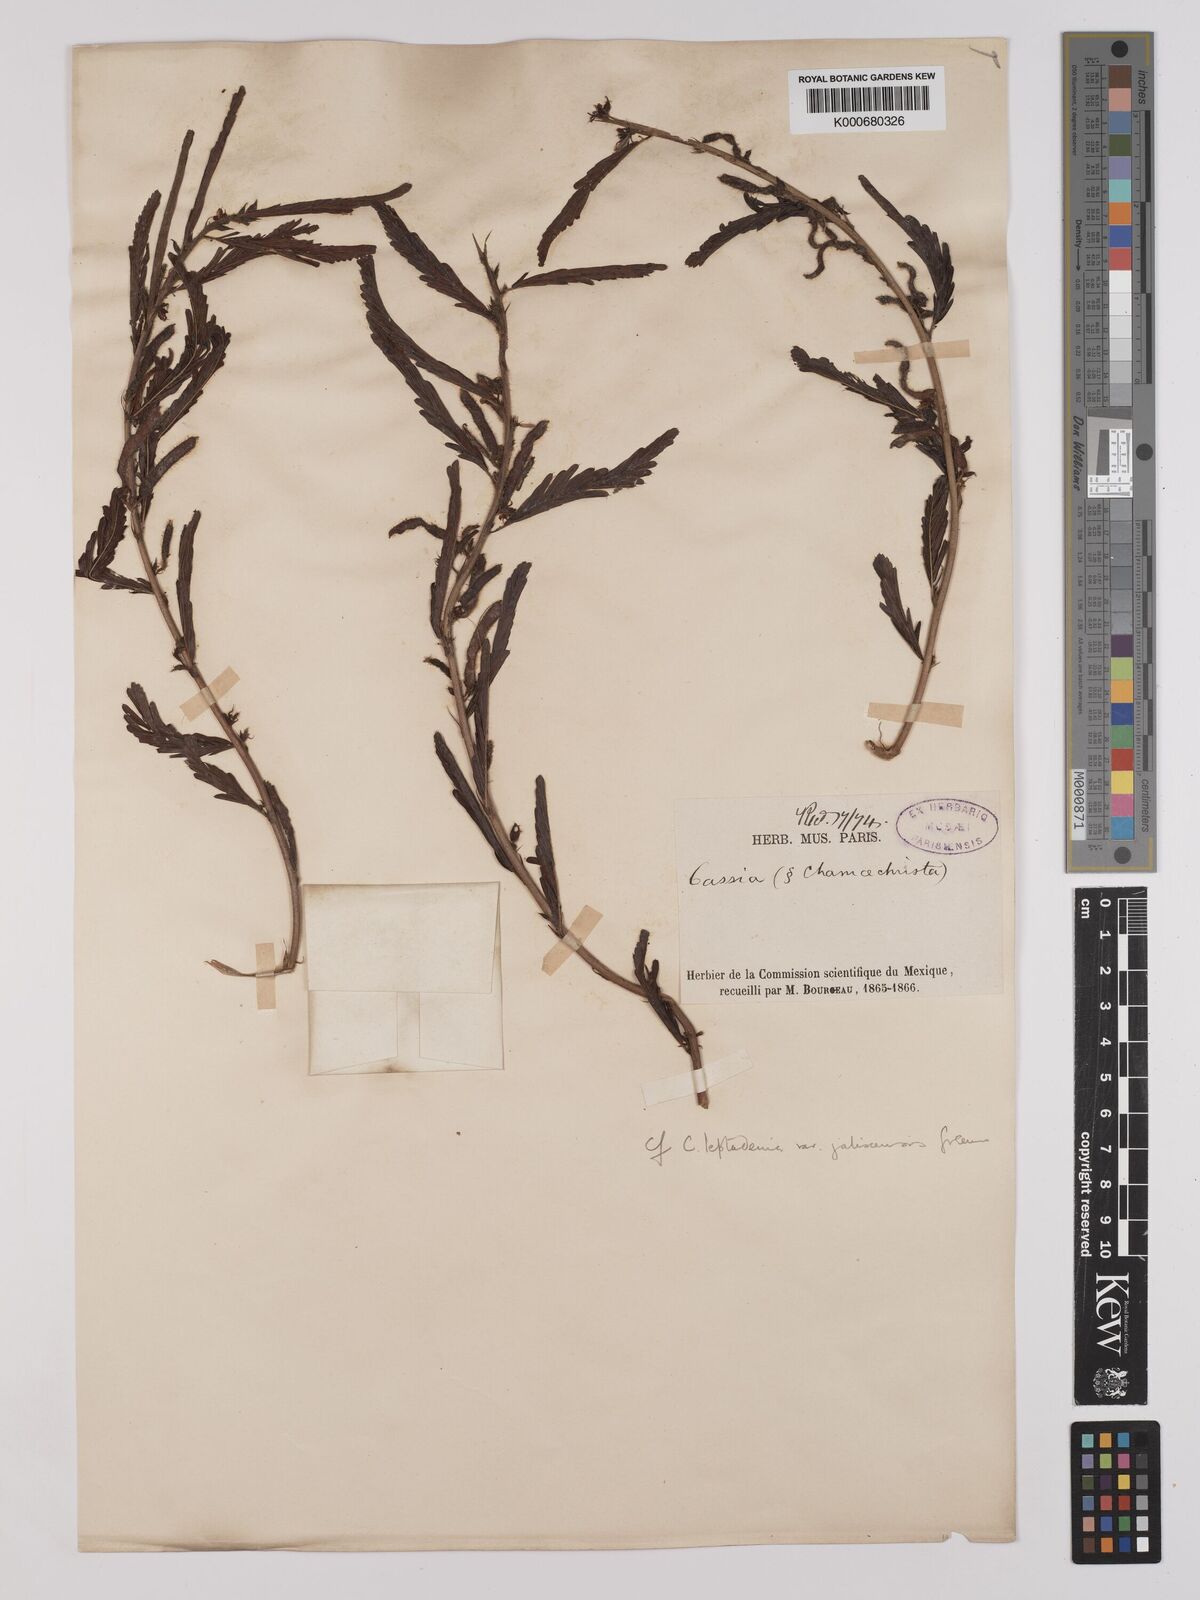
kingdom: Plantae
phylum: Tracheophyta
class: Magnoliopsida
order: Fabales
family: Fabaceae
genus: Chamaecrista
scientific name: Chamaecrista nictitans
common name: Sensitive cassia
